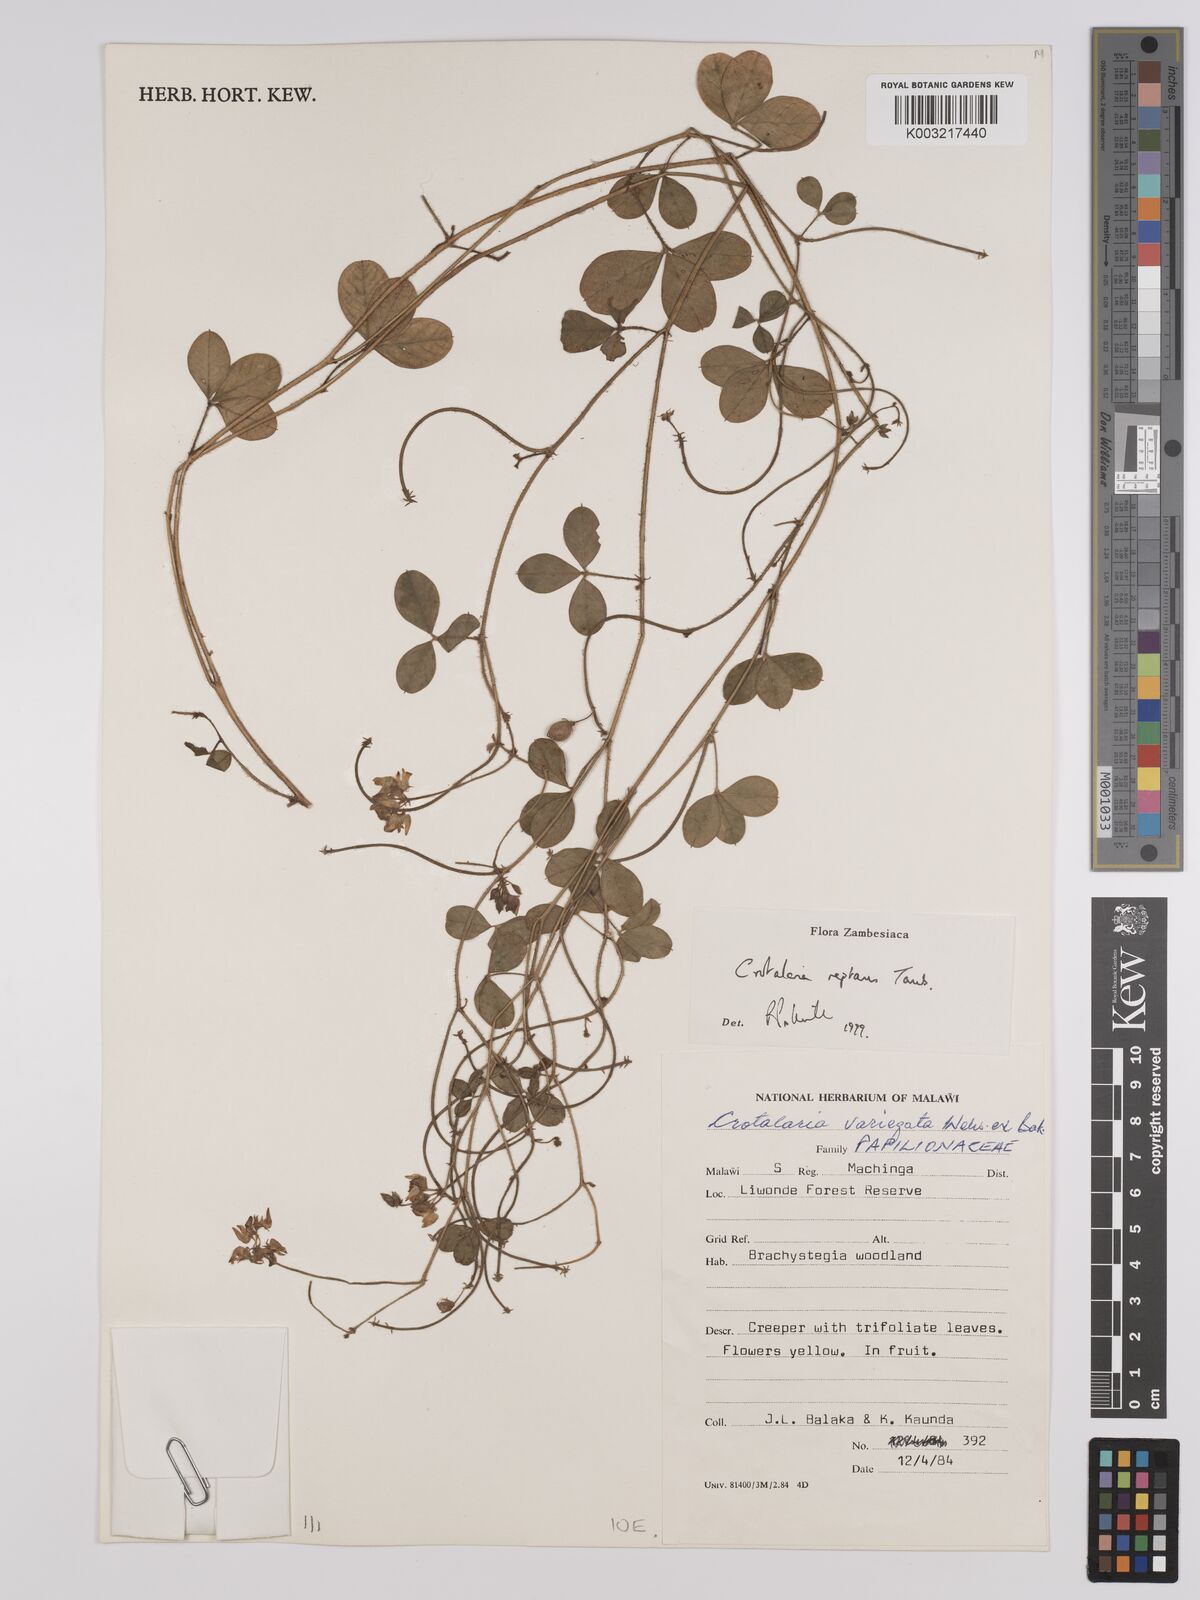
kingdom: Plantae
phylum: Tracheophyta
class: Magnoliopsida
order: Fabales
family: Fabaceae
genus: Crotalaria
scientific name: Crotalaria reptans
